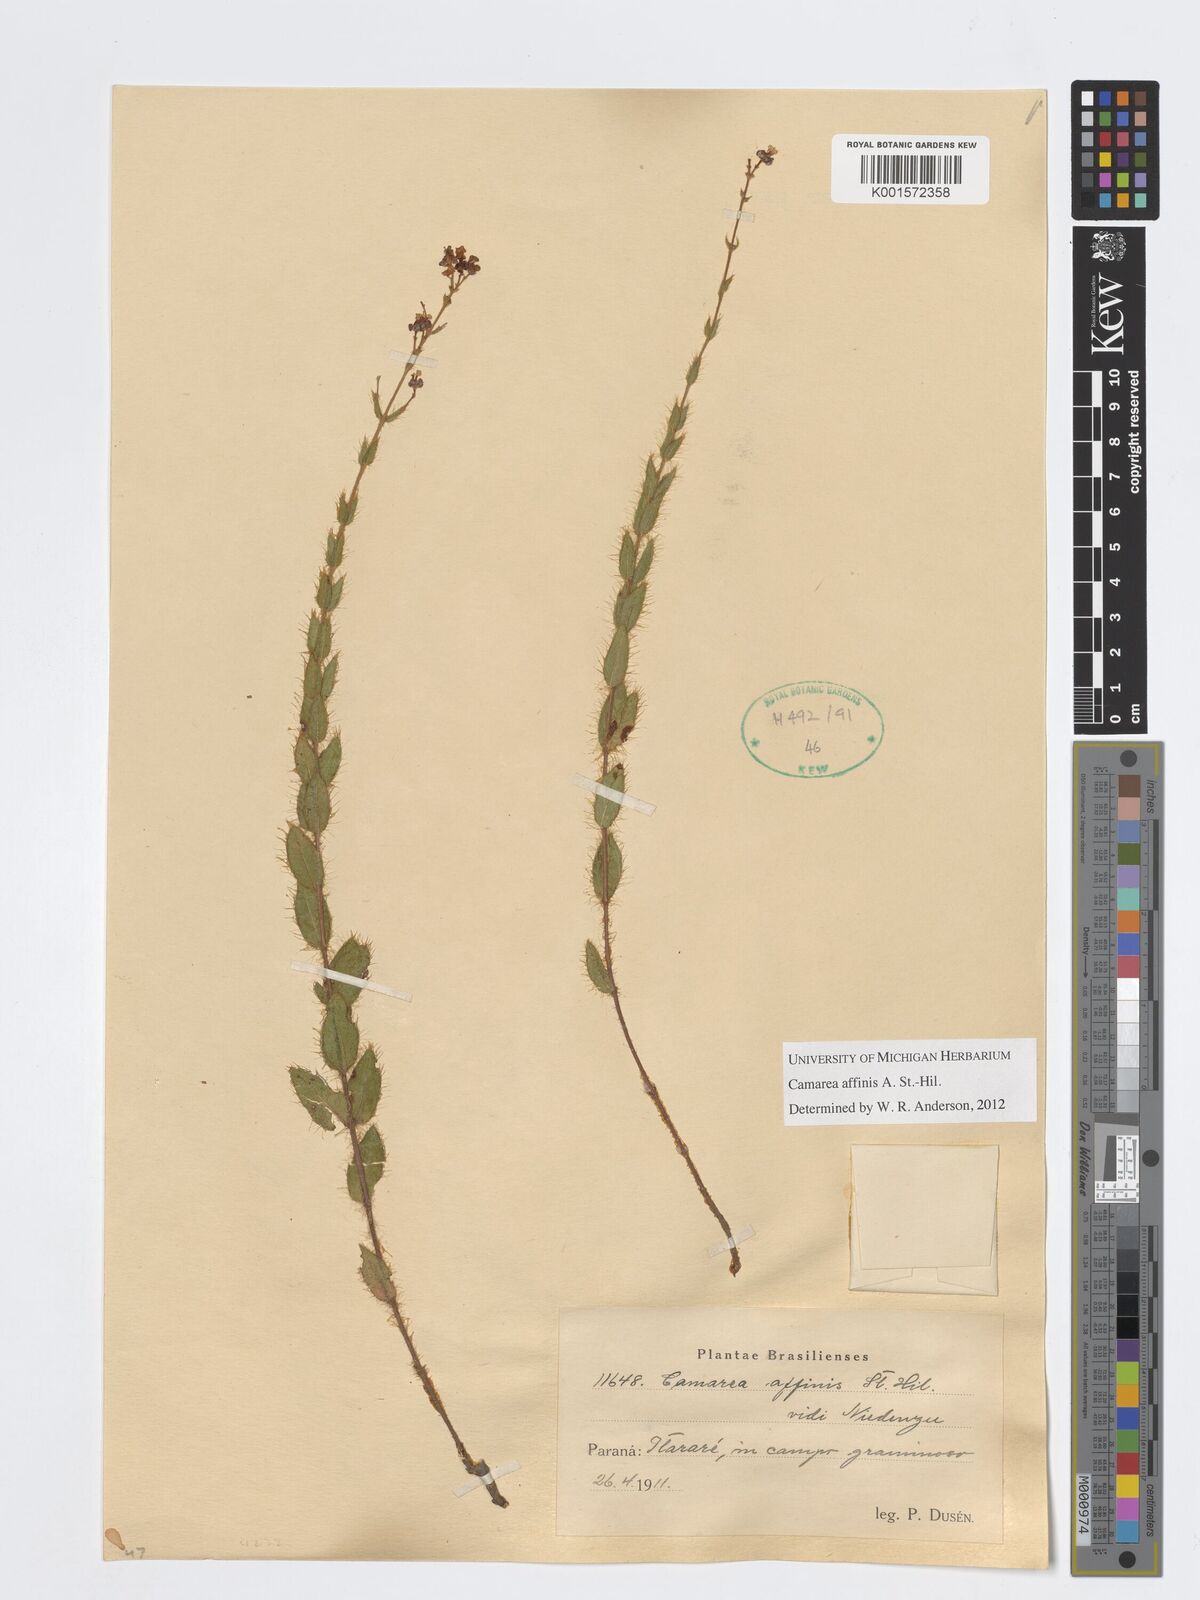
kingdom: Plantae
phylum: Tracheophyta
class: Magnoliopsida
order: Malpighiales
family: Malpighiaceae
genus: Camarea
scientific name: Camarea affinis
